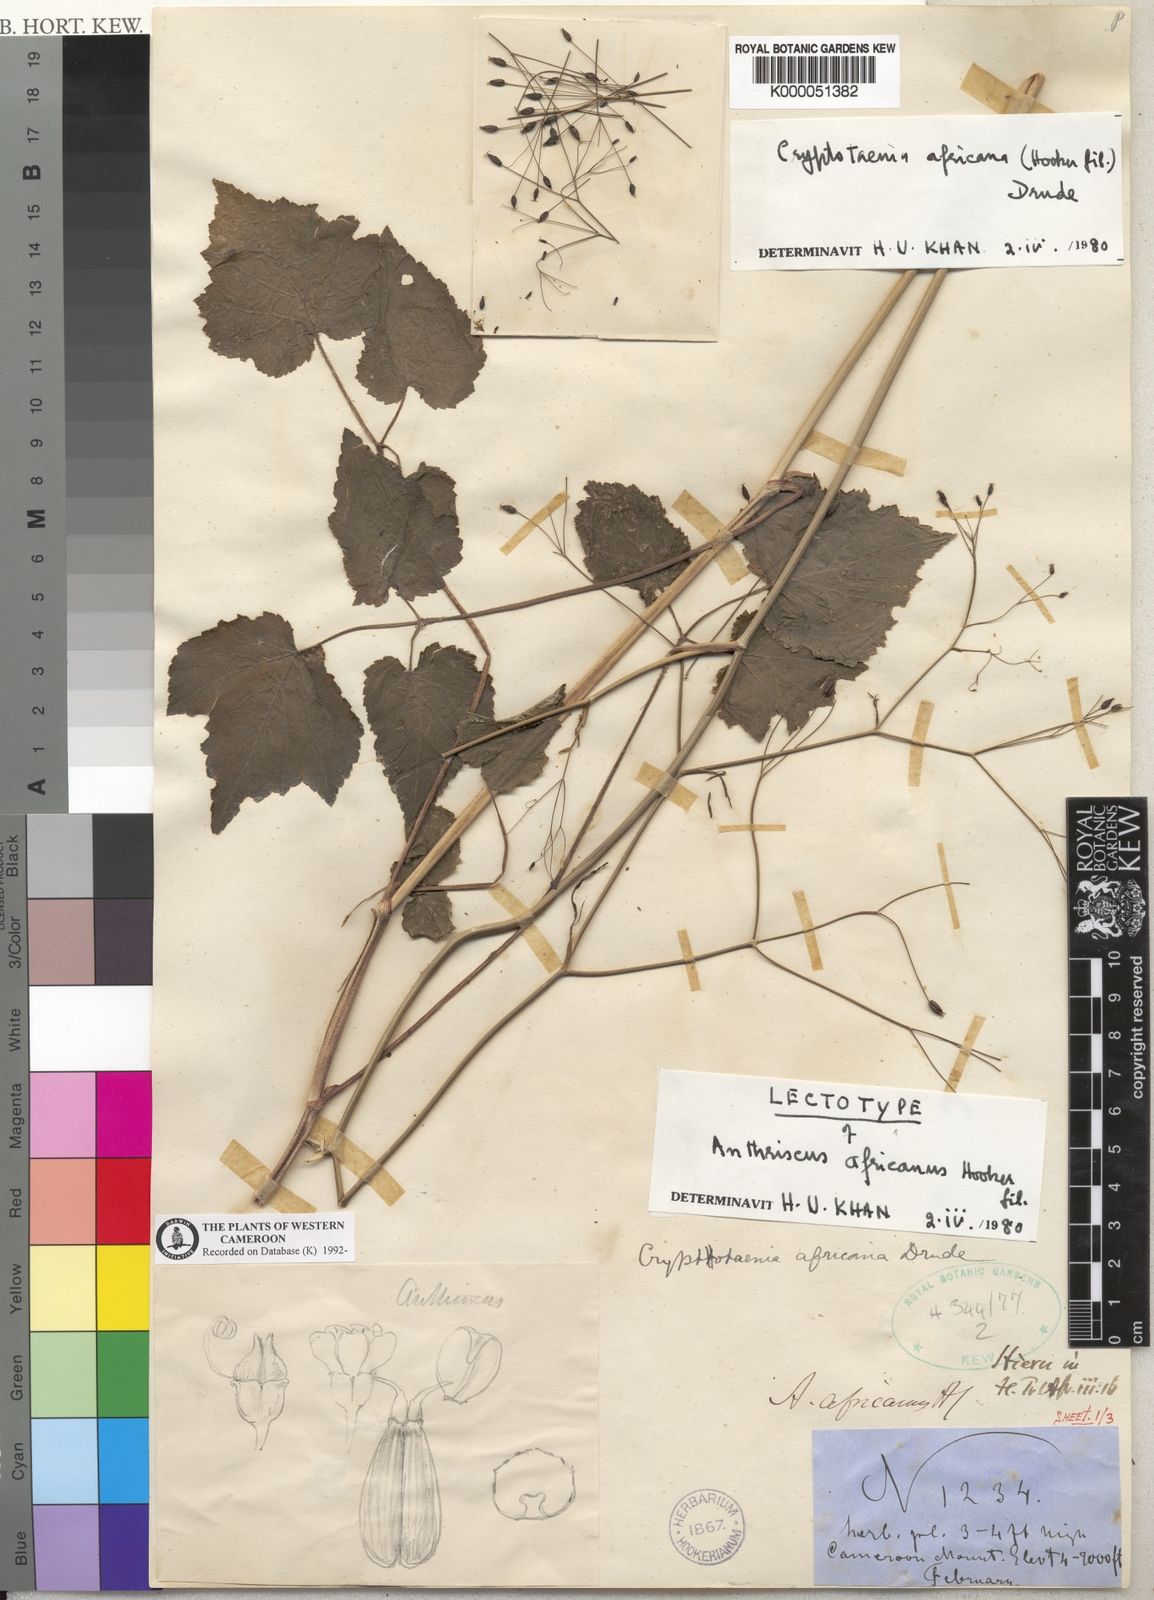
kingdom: Plantae
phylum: Tracheophyta
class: Magnoliopsida
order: Apiales
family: Apiaceae
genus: Cryptotaenia
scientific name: Cryptotaenia africana
